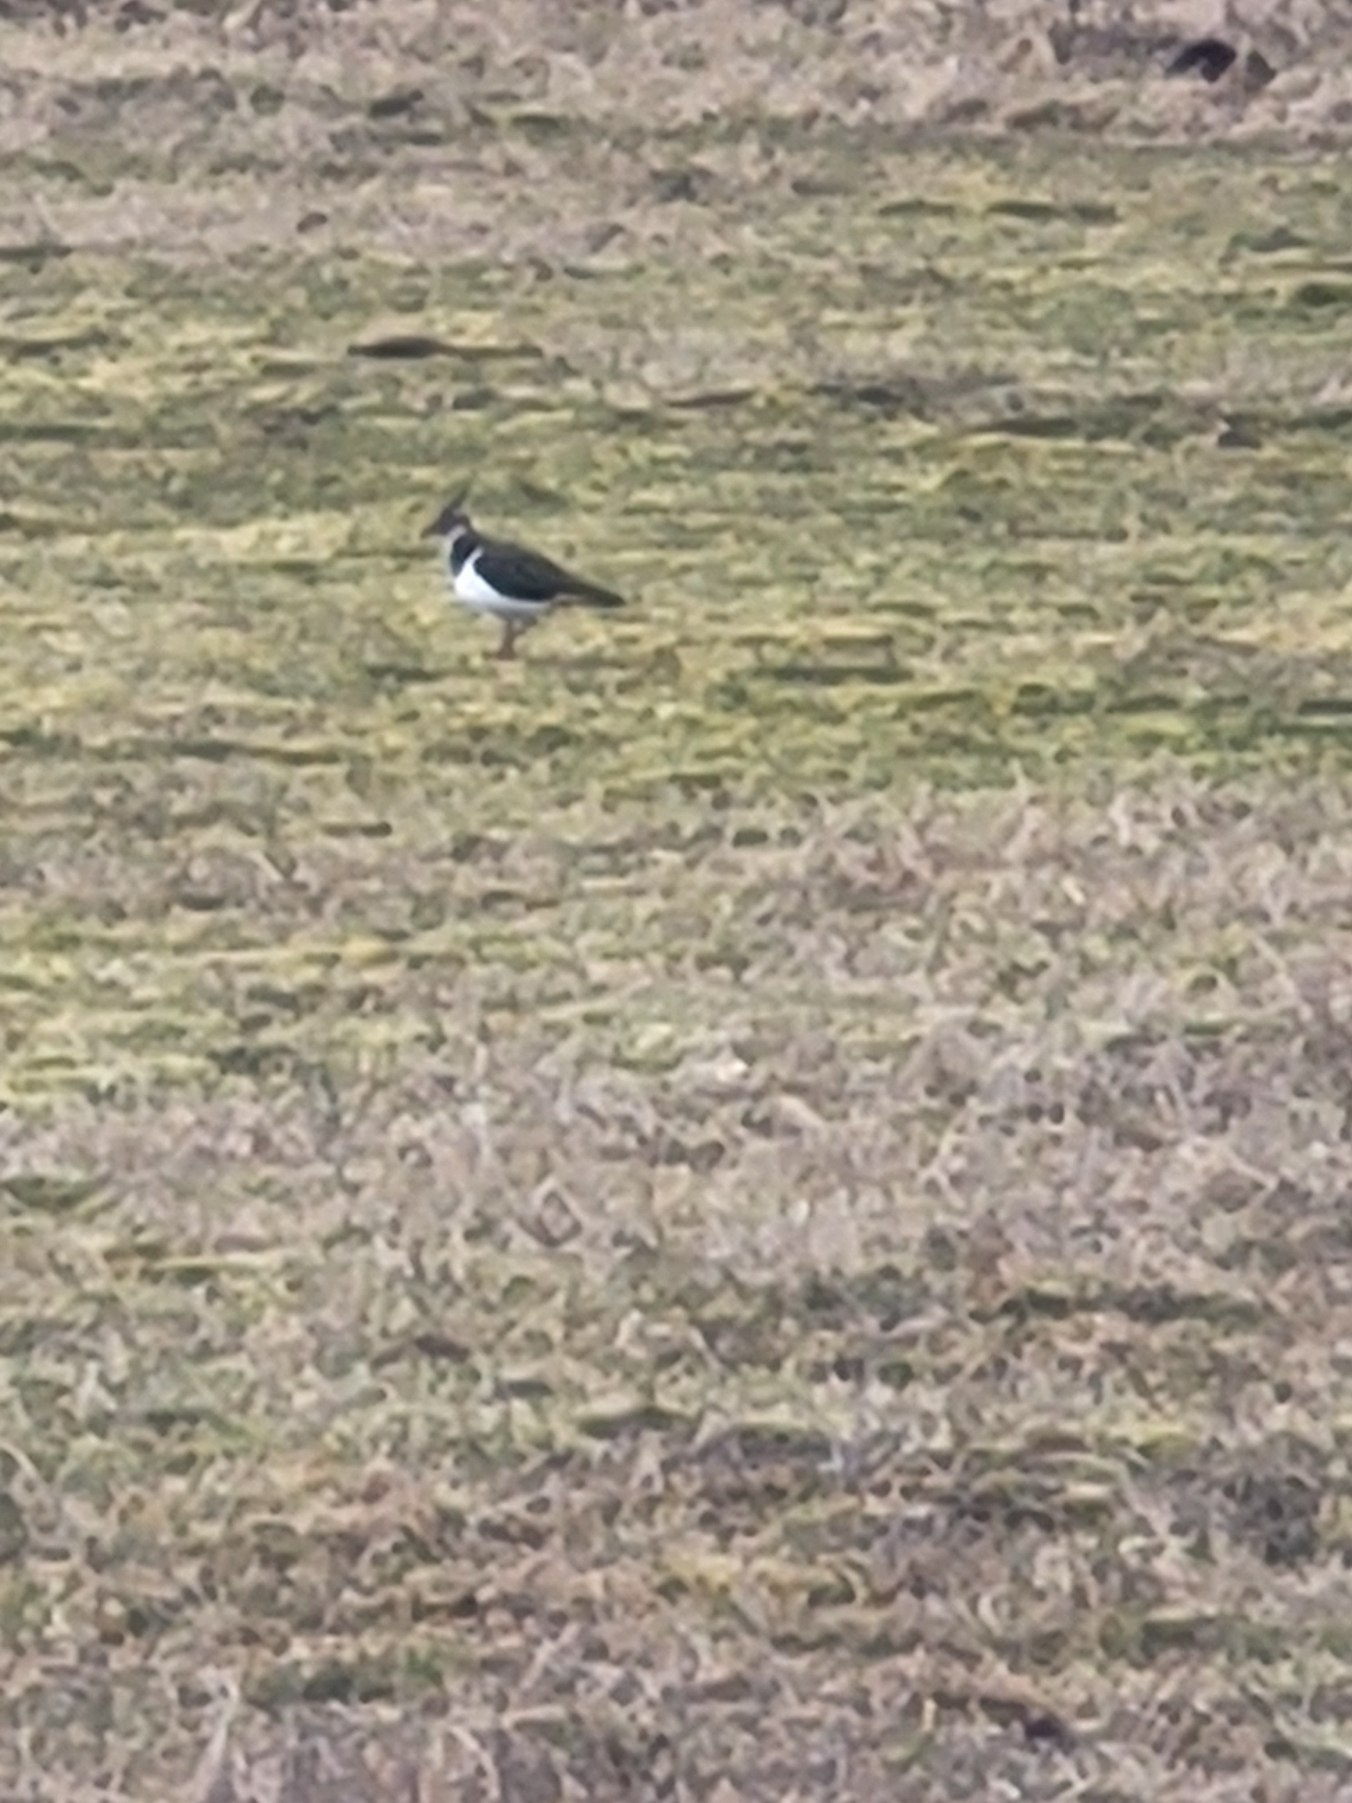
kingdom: Animalia
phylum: Chordata
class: Aves
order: Charadriiformes
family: Charadriidae
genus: Vanellus
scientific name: Vanellus vanellus
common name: Vibe
